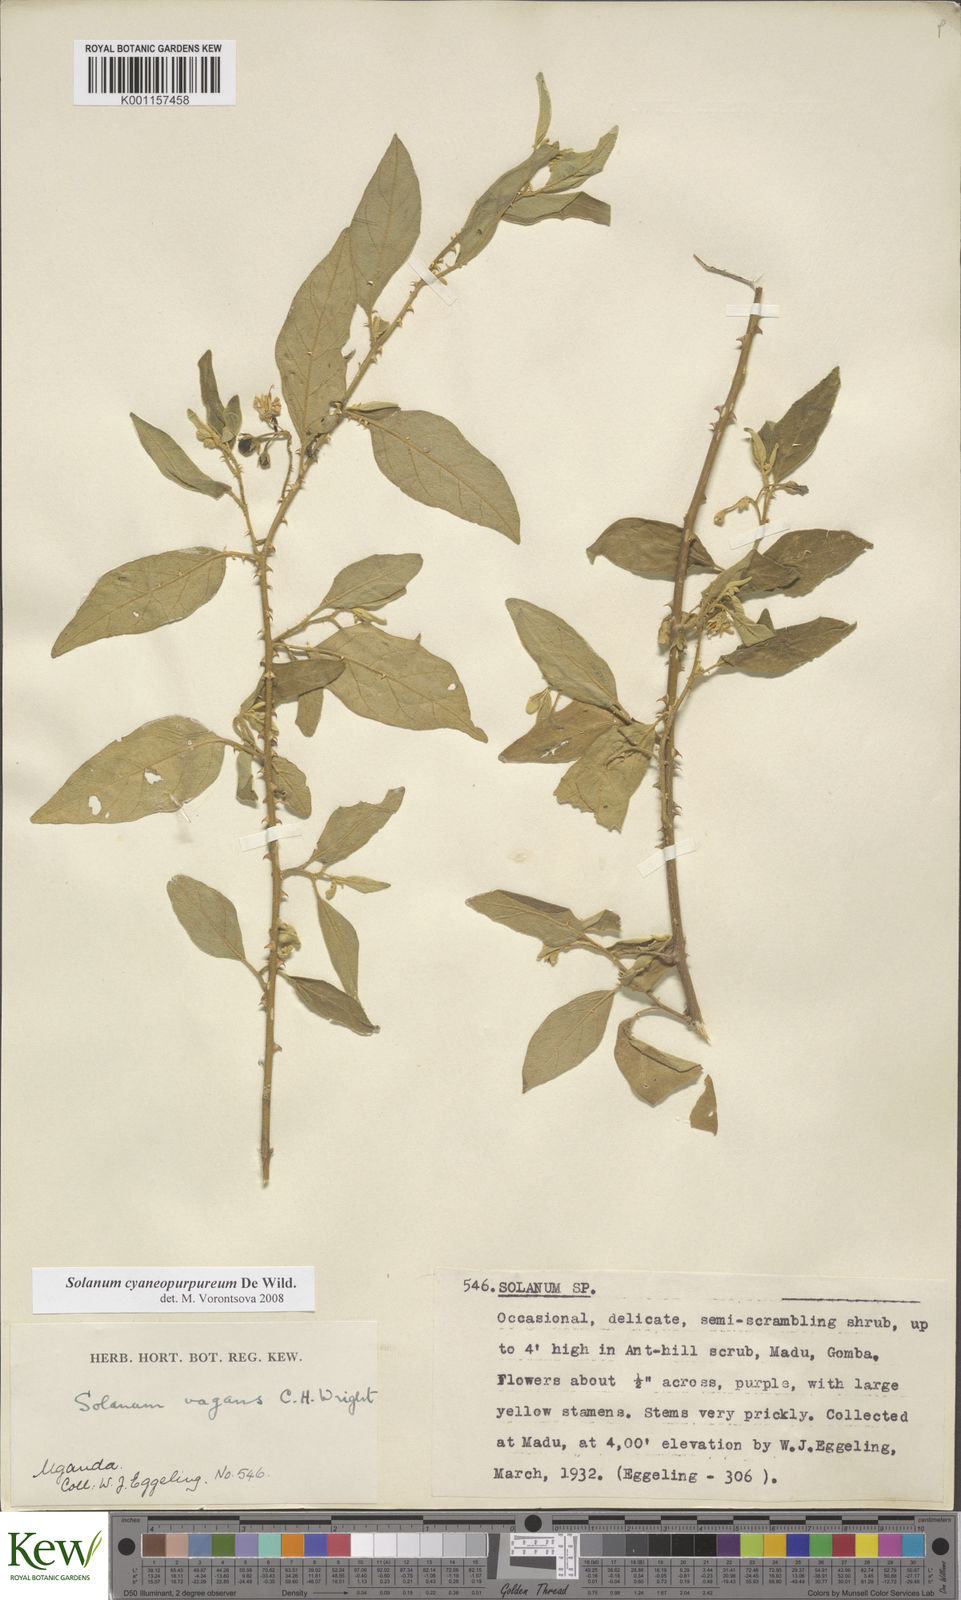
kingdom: Plantae
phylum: Tracheophyta
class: Magnoliopsida
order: Solanales
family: Solanaceae
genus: Solanum
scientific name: Solanum cyaneopurpureum
